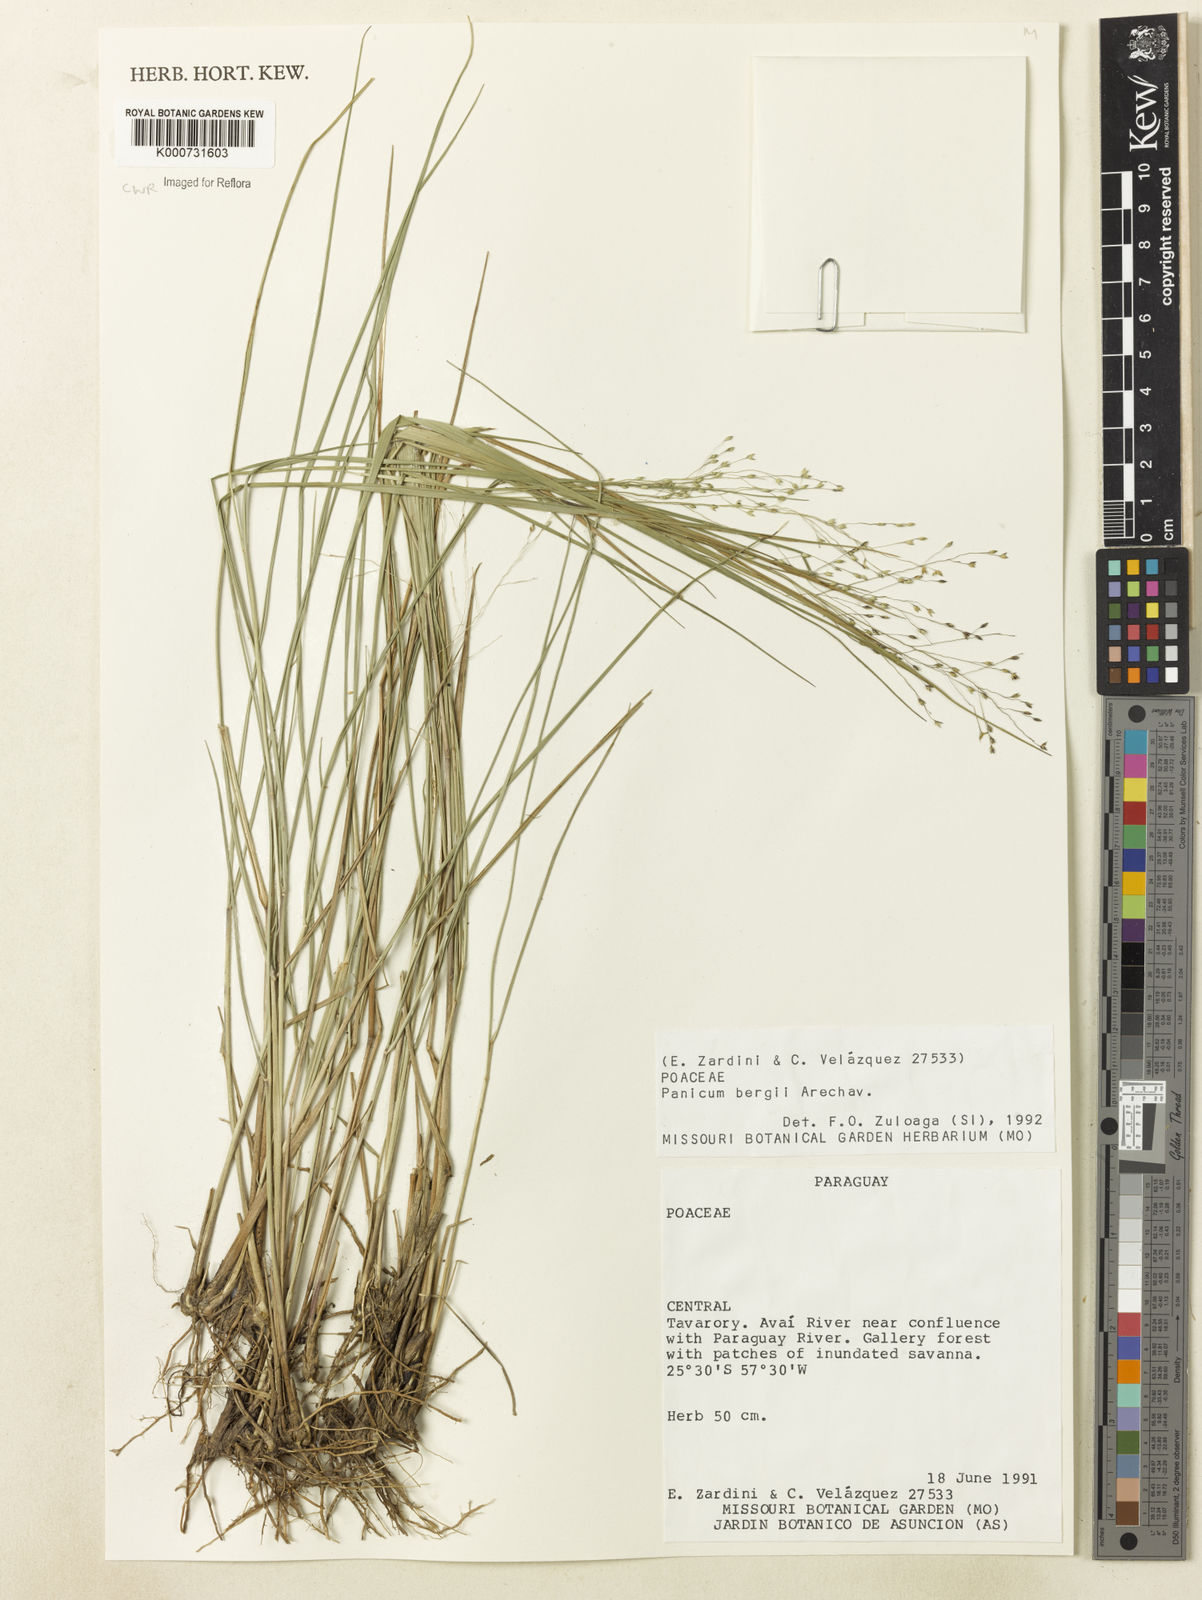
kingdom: Plantae
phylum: Tracheophyta
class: Liliopsida
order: Poales
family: Poaceae
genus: Panicum
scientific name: Panicum
